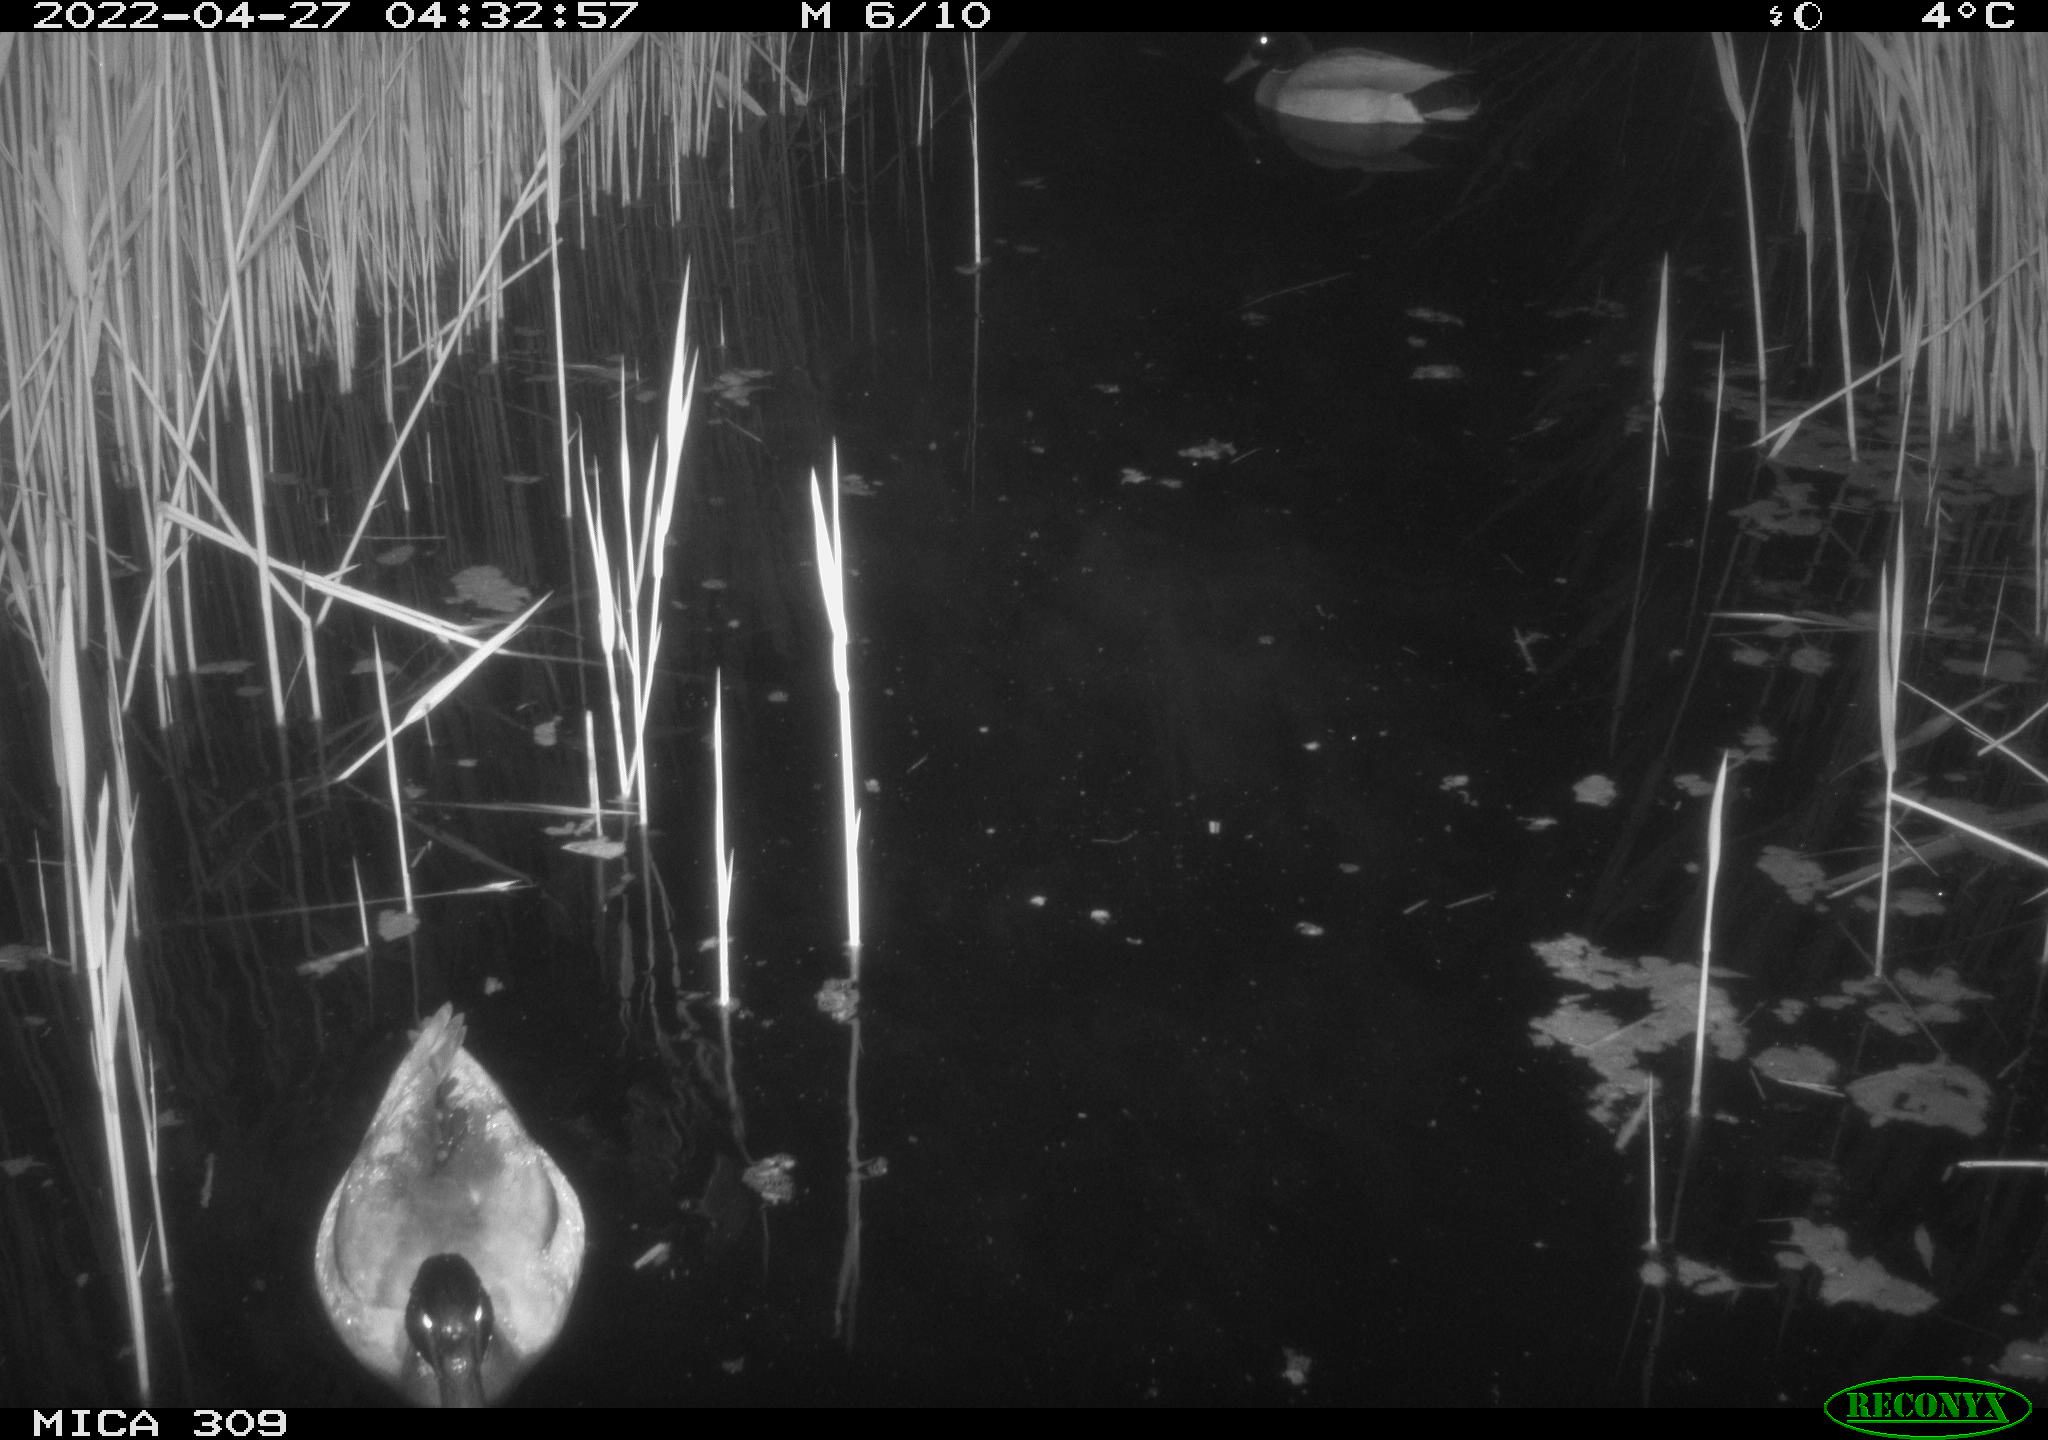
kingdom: Animalia
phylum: Chordata
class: Aves
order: Gruiformes
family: Rallidae
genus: Gallinula
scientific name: Gallinula chloropus
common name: Common moorhen
